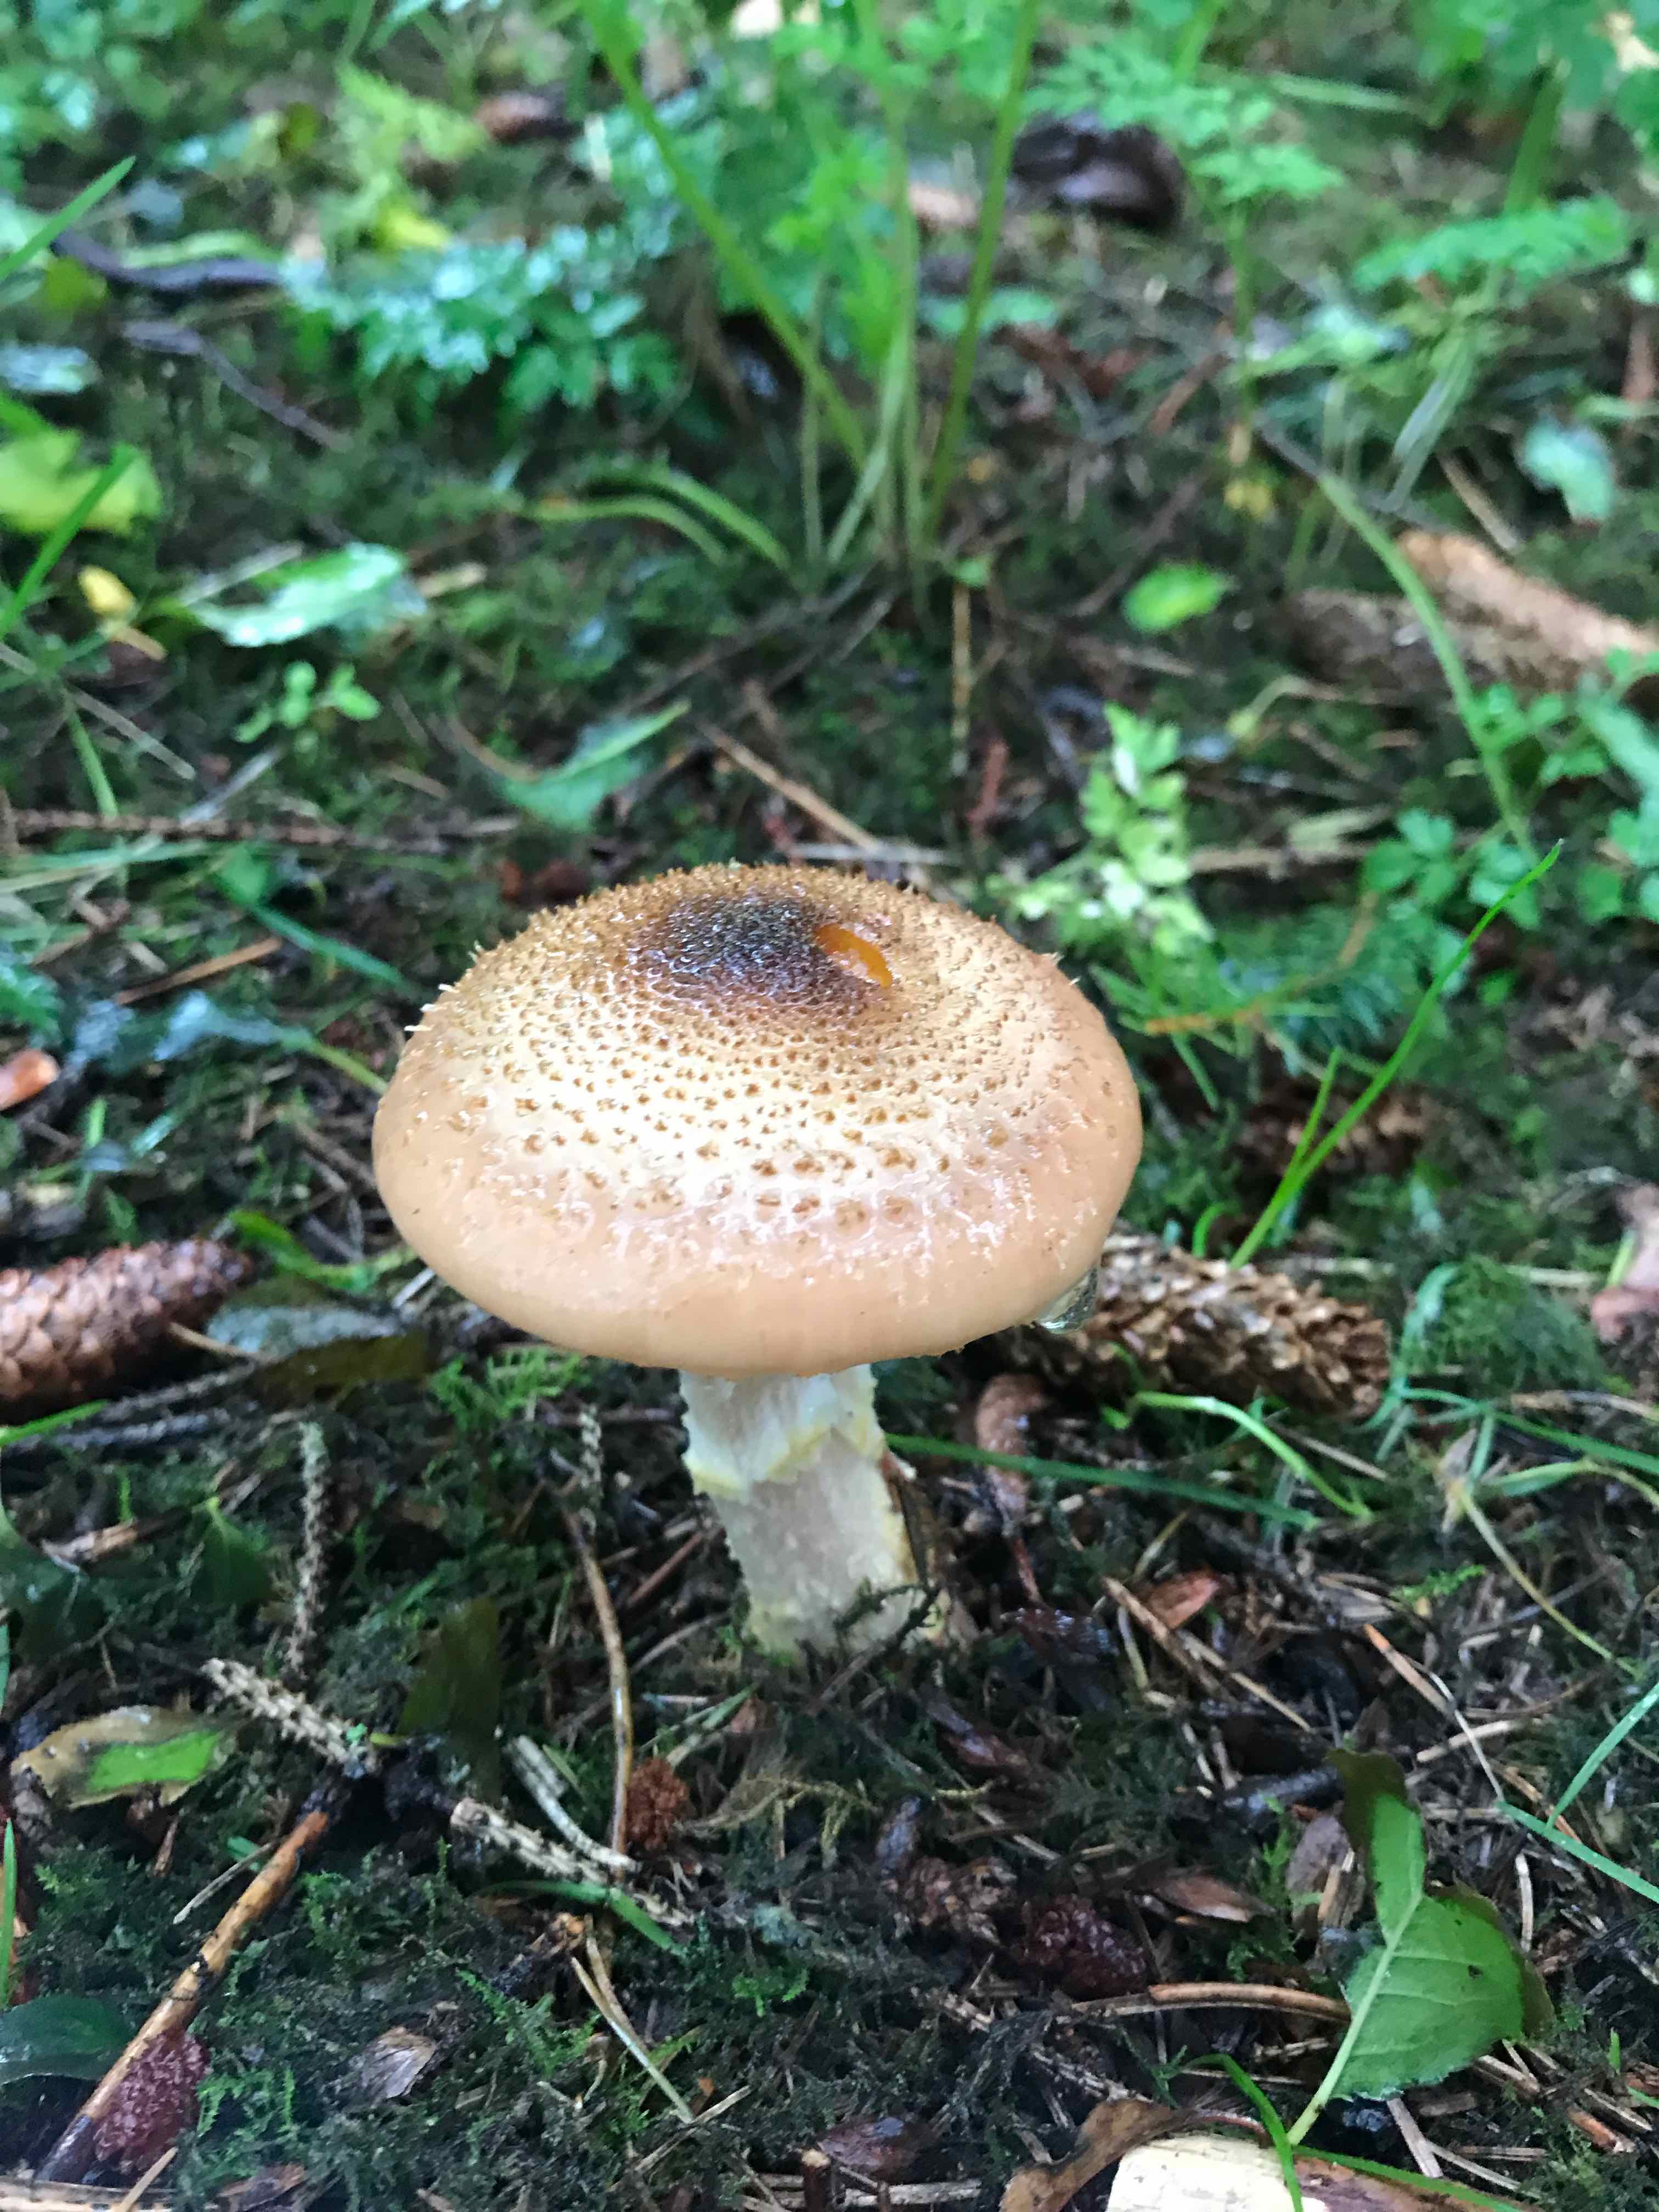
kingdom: Fungi
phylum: Basidiomycota
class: Agaricomycetes
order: Agaricales
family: Physalacriaceae
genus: Armillaria
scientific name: Armillaria
